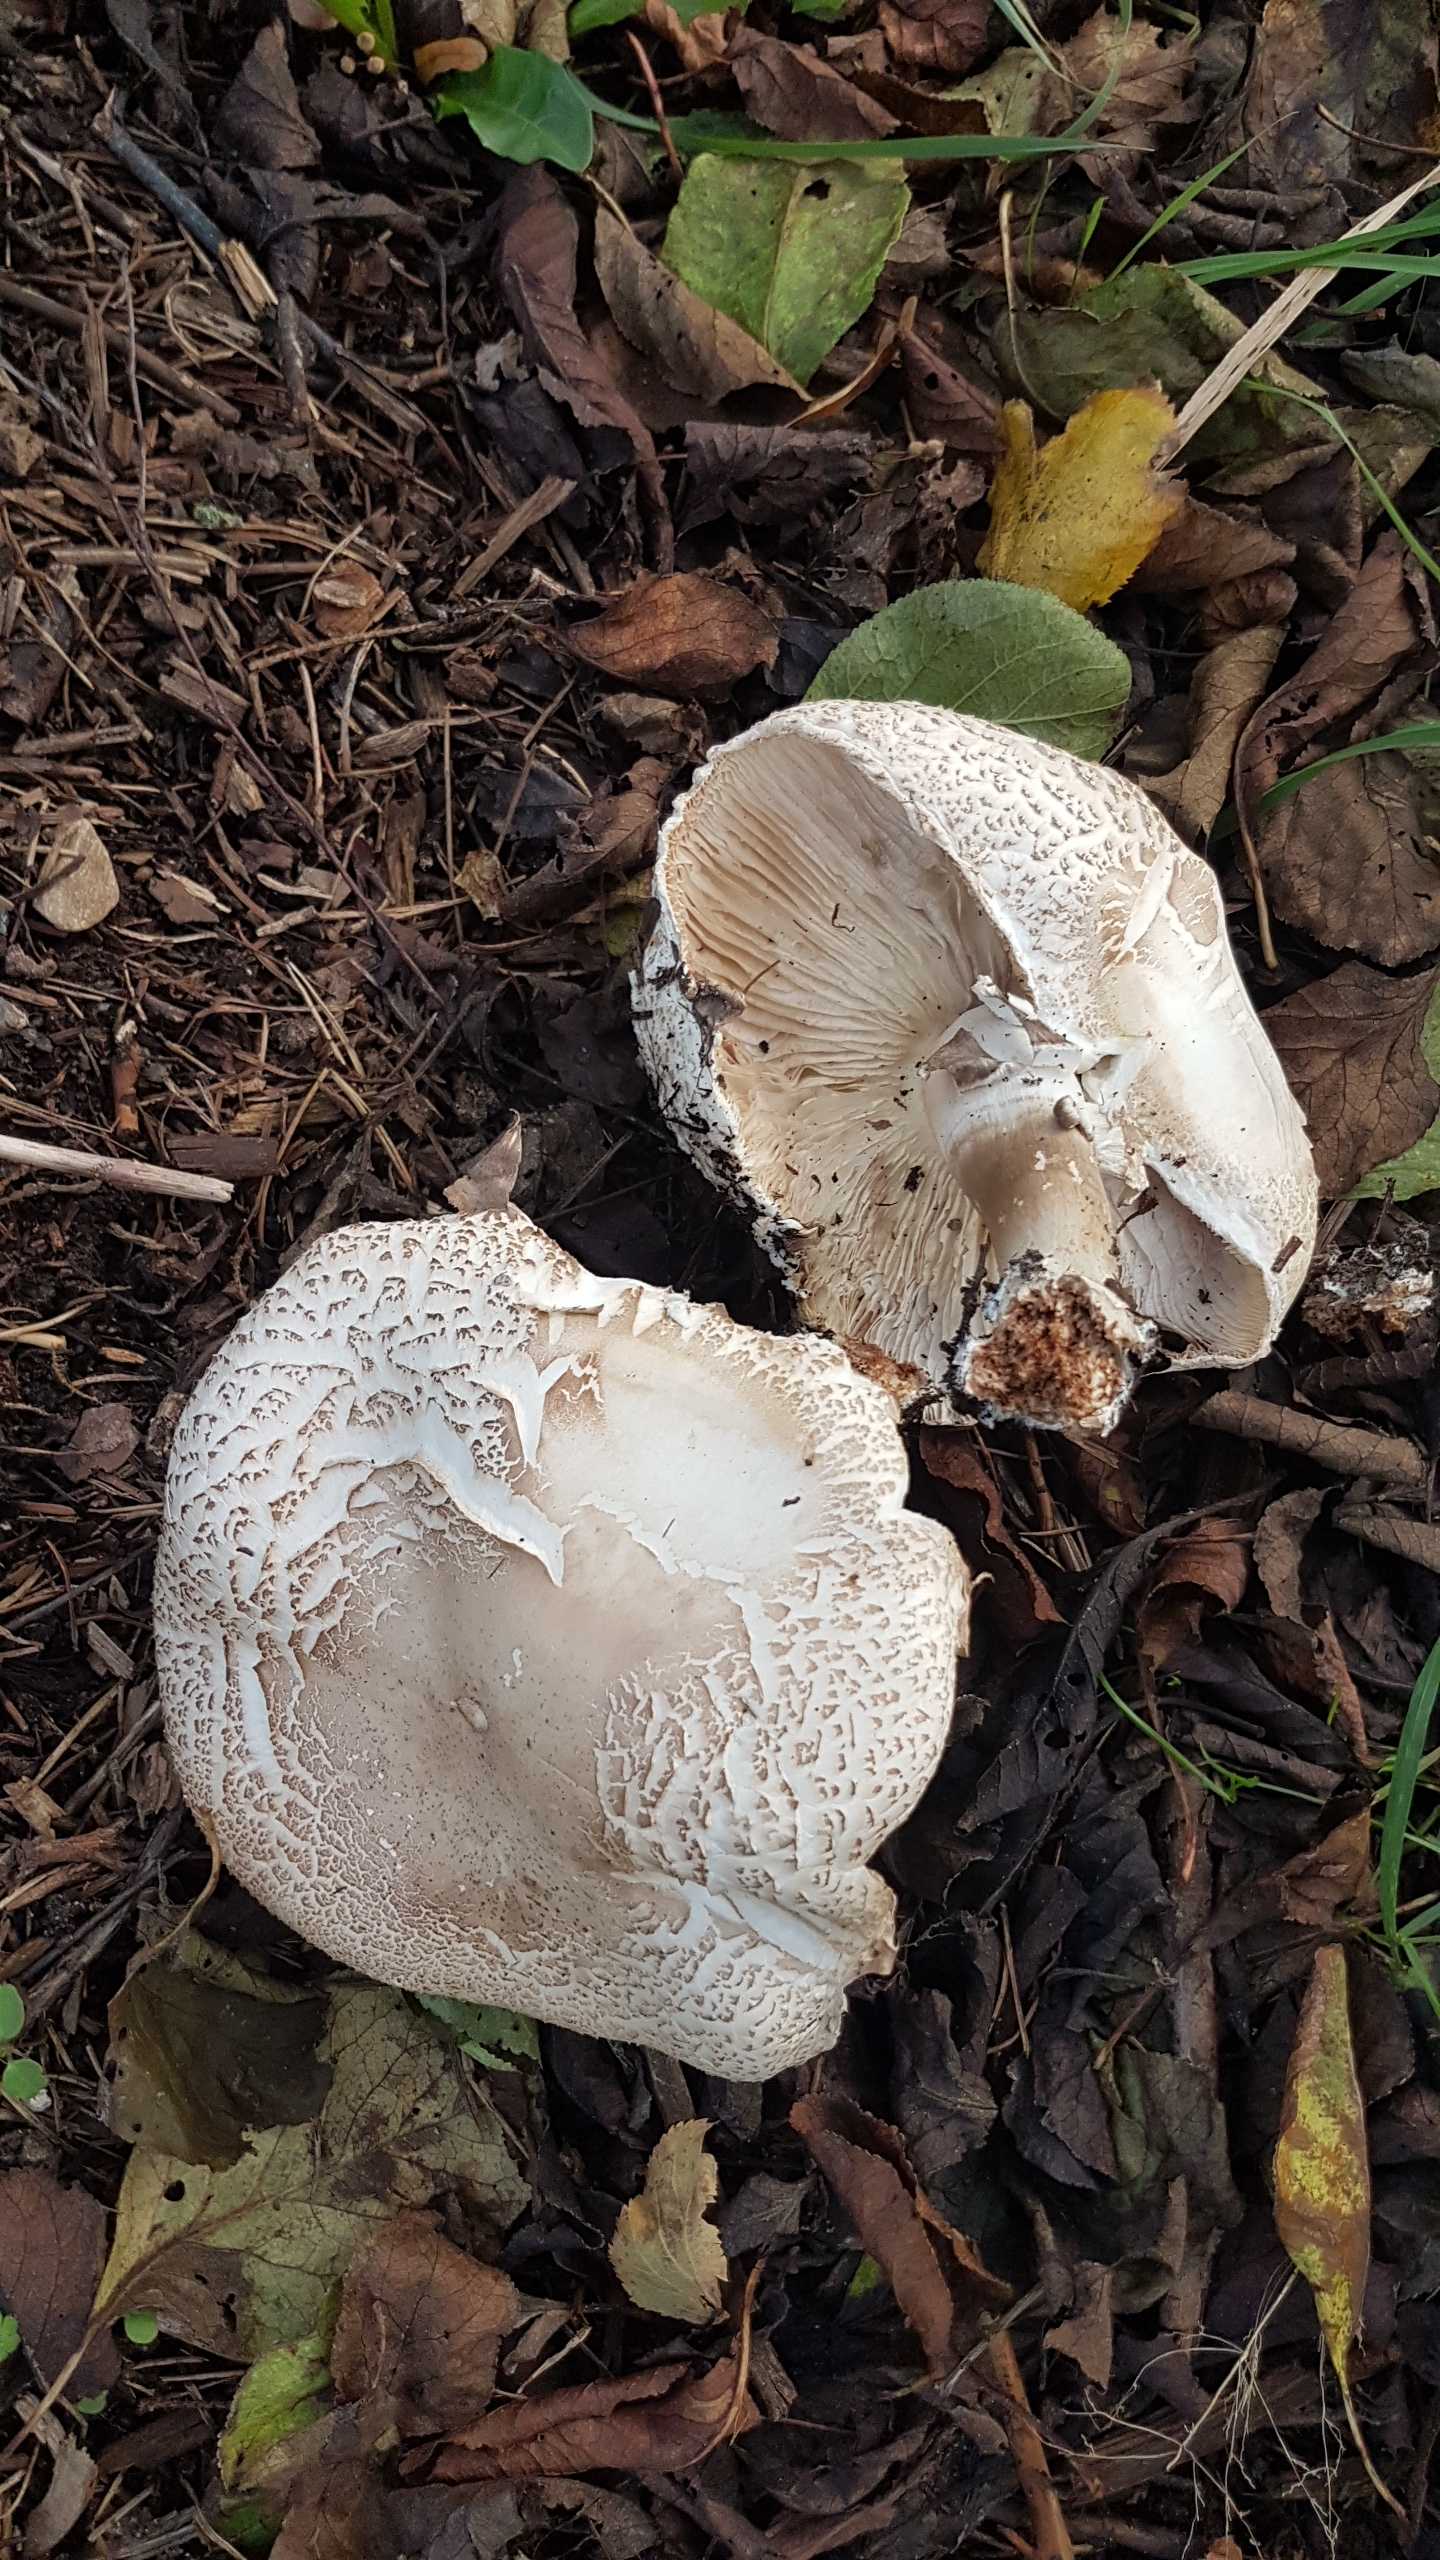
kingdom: Fungi
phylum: Basidiomycota
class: Agaricomycetes
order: Agaricales
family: Agaricaceae
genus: Agaricus
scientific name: Agaricus xanthodermus
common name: karbol-champignon
